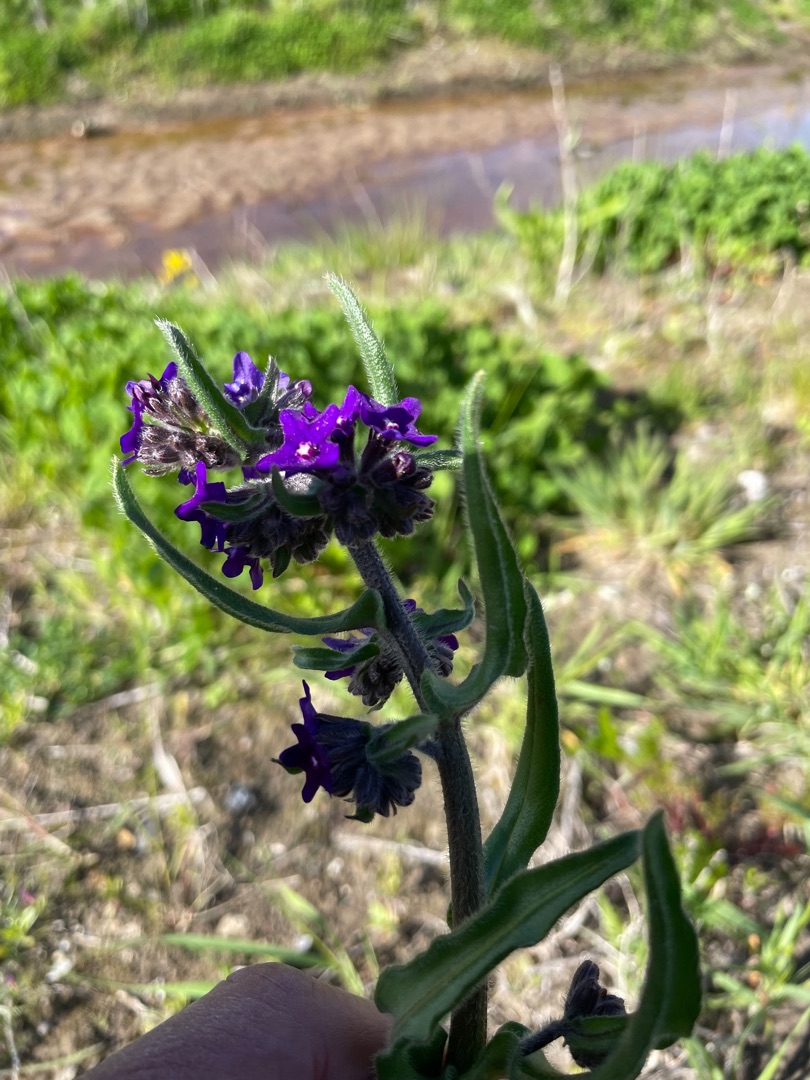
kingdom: Plantae
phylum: Tracheophyta
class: Magnoliopsida
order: Boraginales
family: Boraginaceae
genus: Anchusa
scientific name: Anchusa officinalis
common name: Læge-oksetunge
